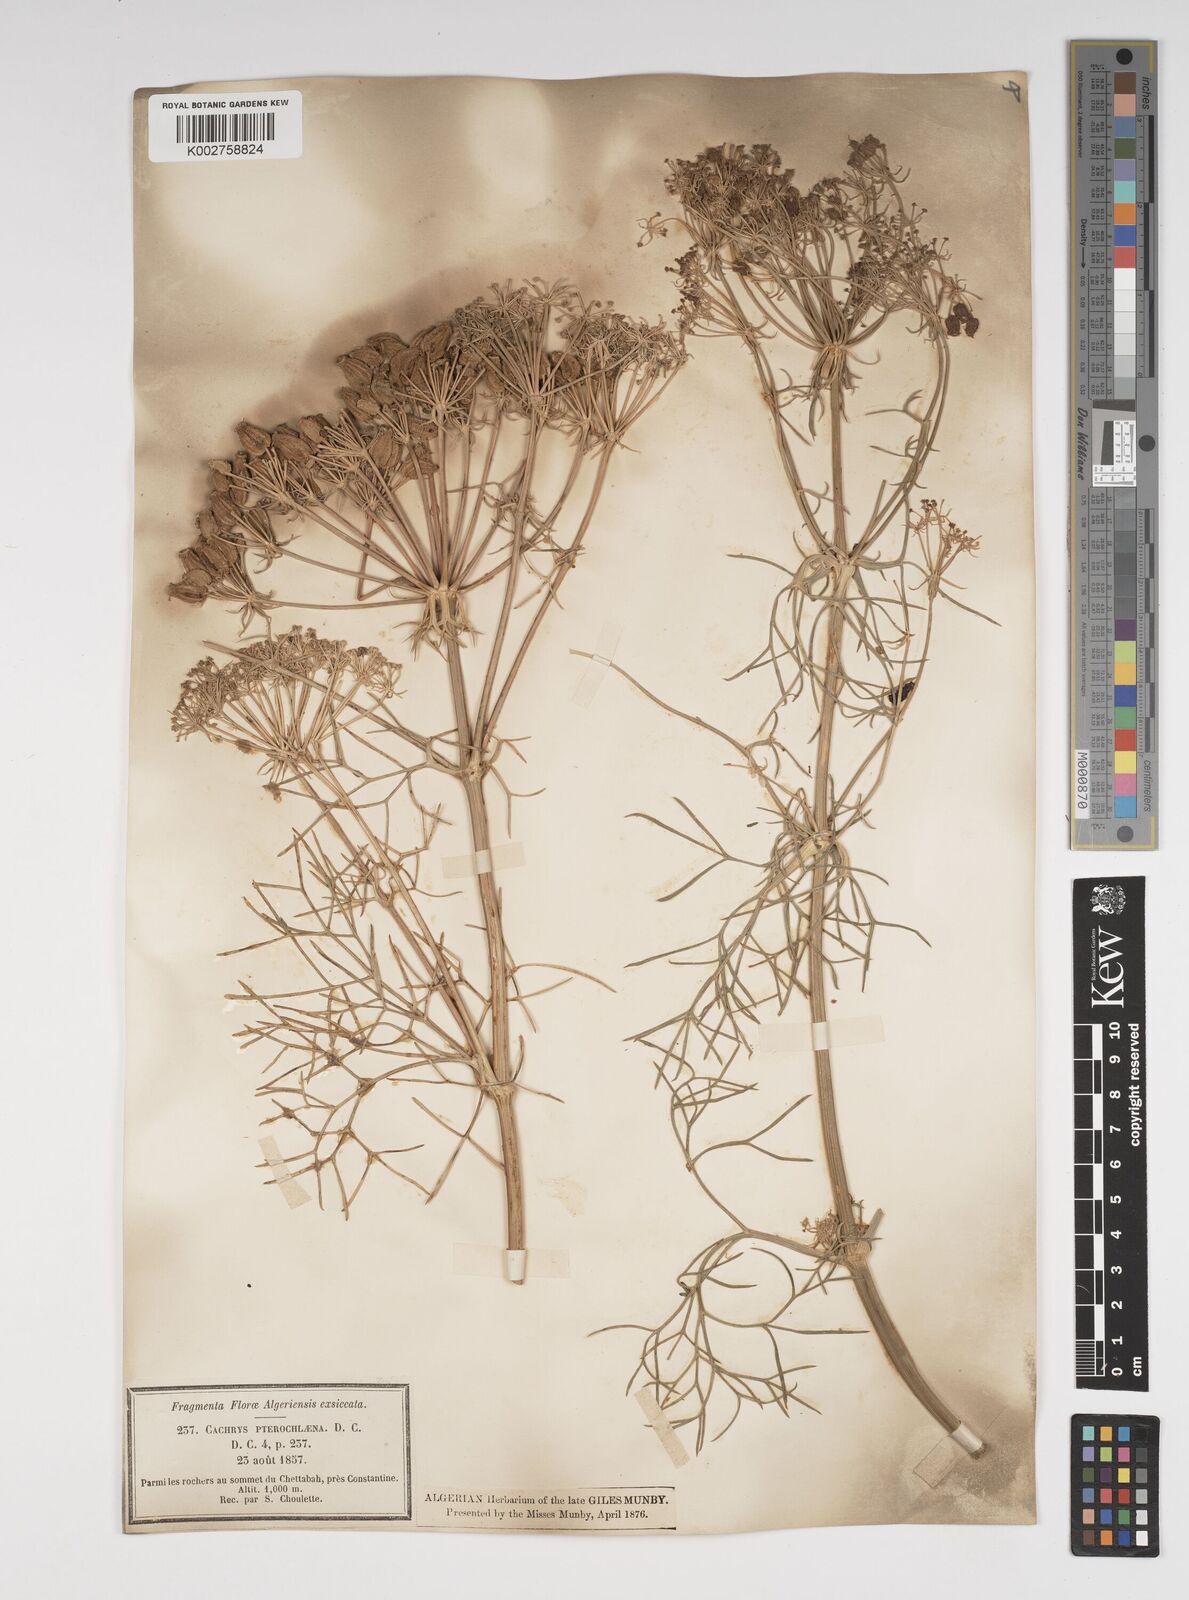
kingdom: Plantae
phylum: Tracheophyta
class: Magnoliopsida
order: Apiales
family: Apiaceae
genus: Cachrys
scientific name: Cachrys sicula
